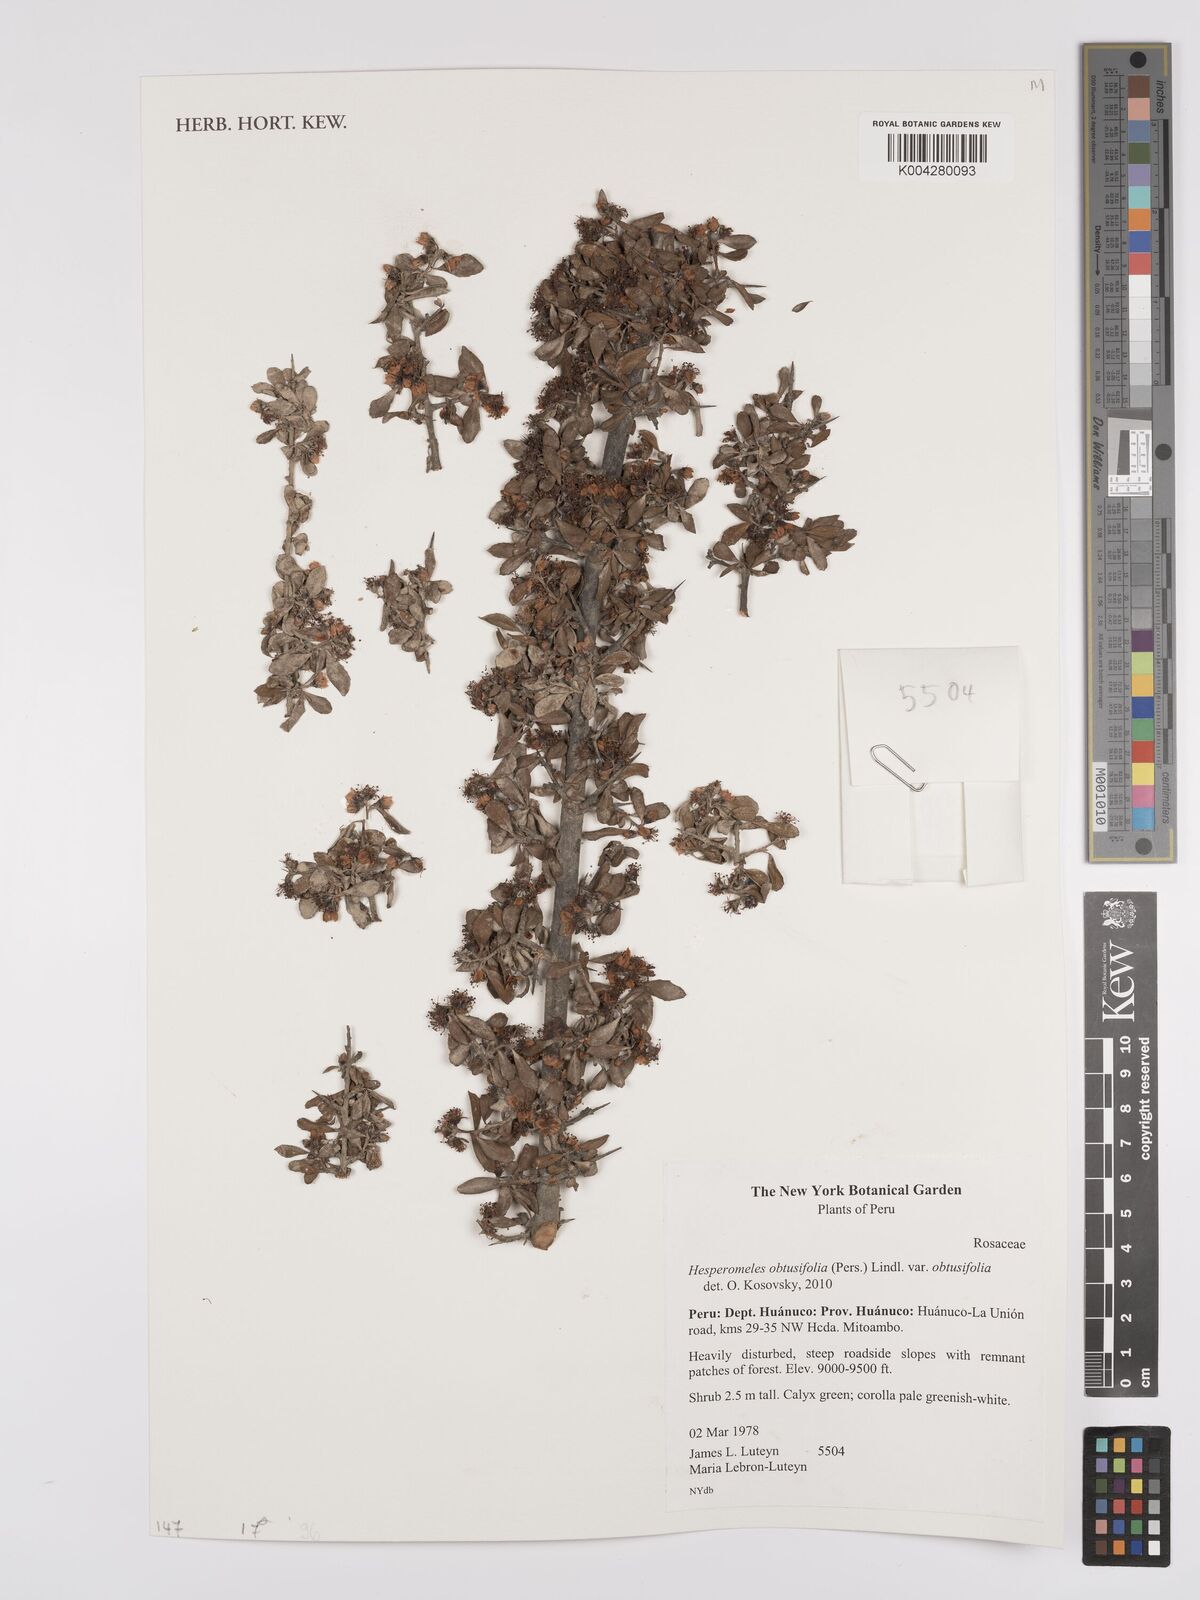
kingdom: Plantae
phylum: Tracheophyta
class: Magnoliopsida
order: Rosales
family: Rosaceae
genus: Hesperomeles
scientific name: Hesperomeles obtusifolia
